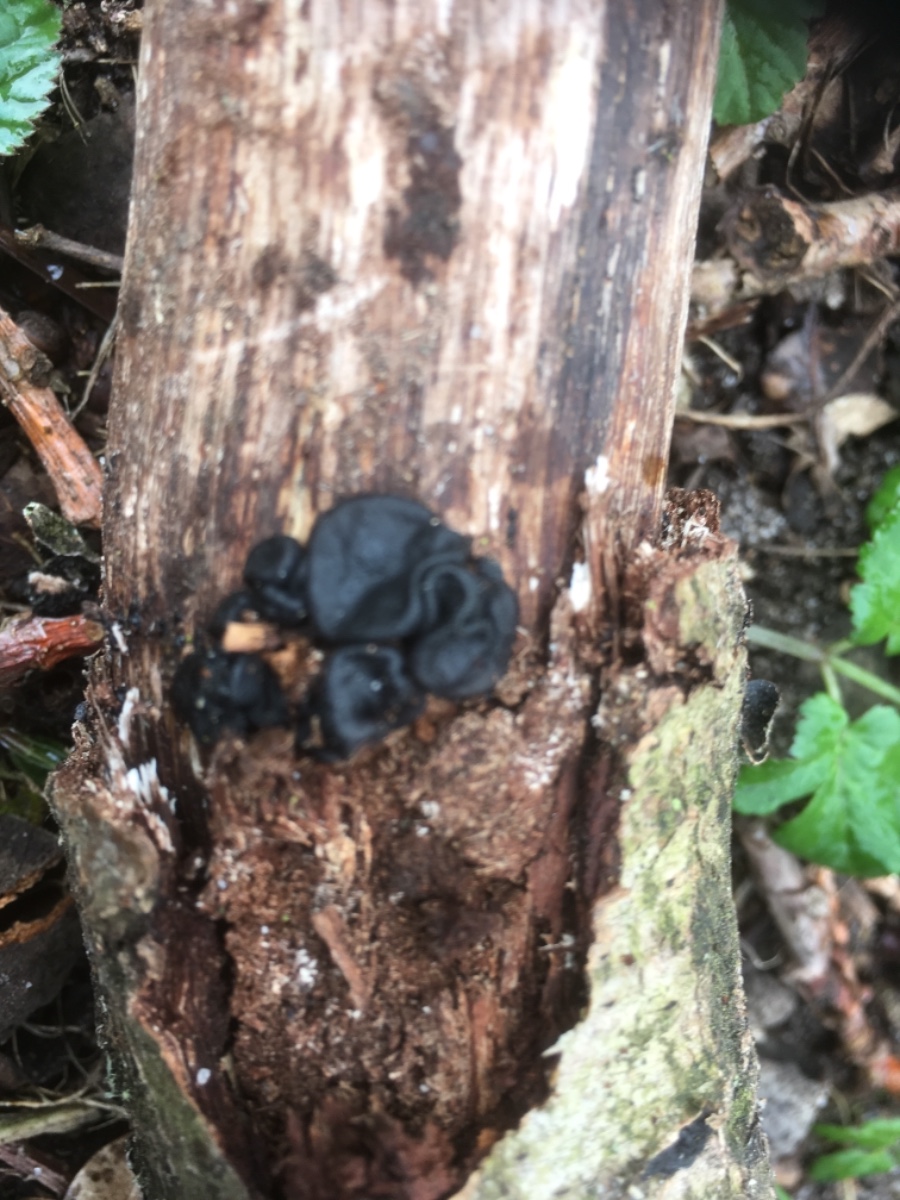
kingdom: Fungi
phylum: Basidiomycota
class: Agaricomycetes
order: Auriculariales
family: Auriculariaceae
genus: Exidia
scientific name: Exidia glandulosa
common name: ege-bævretop
